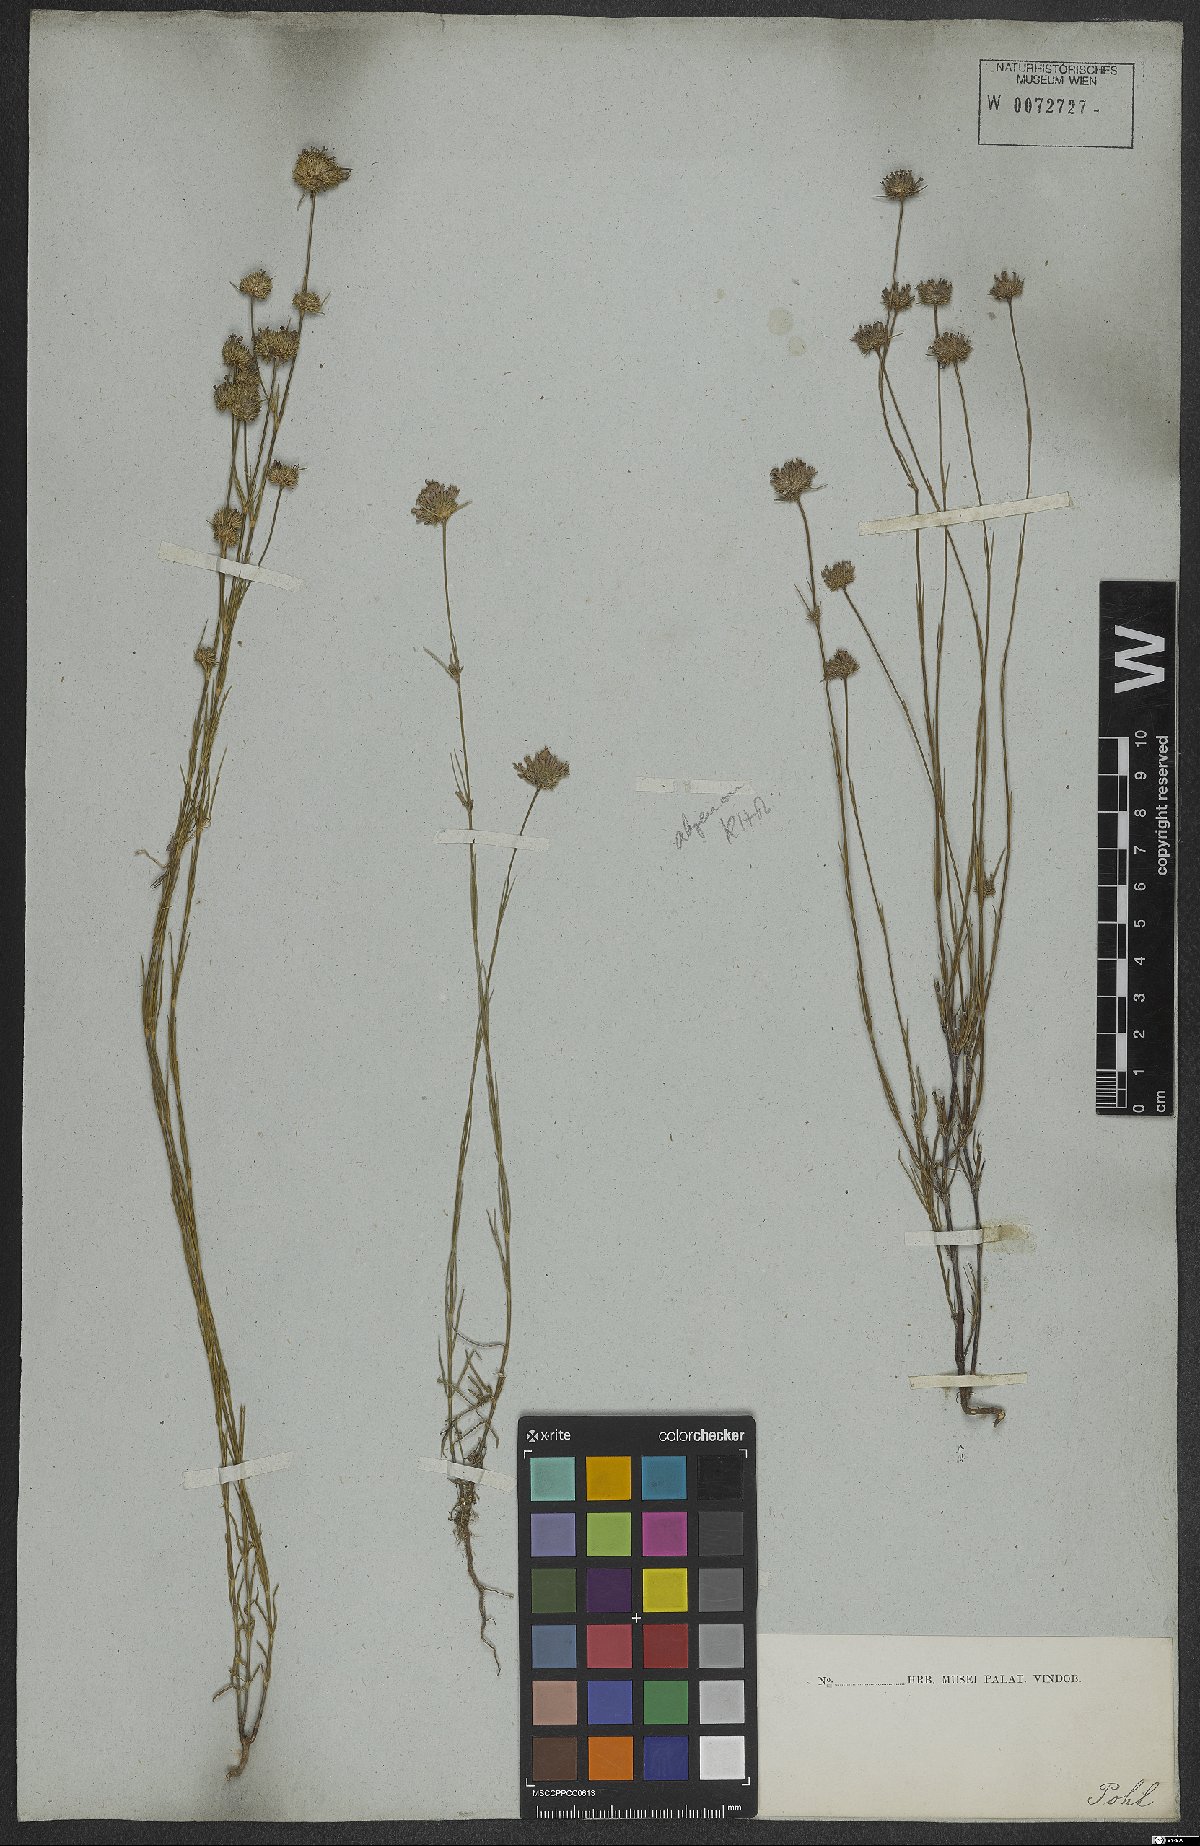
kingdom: Plantae
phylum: Tracheophyta
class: Magnoliopsida
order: Gentianales
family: Rubiaceae
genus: Spermacoce
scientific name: Spermacoce gracillima
